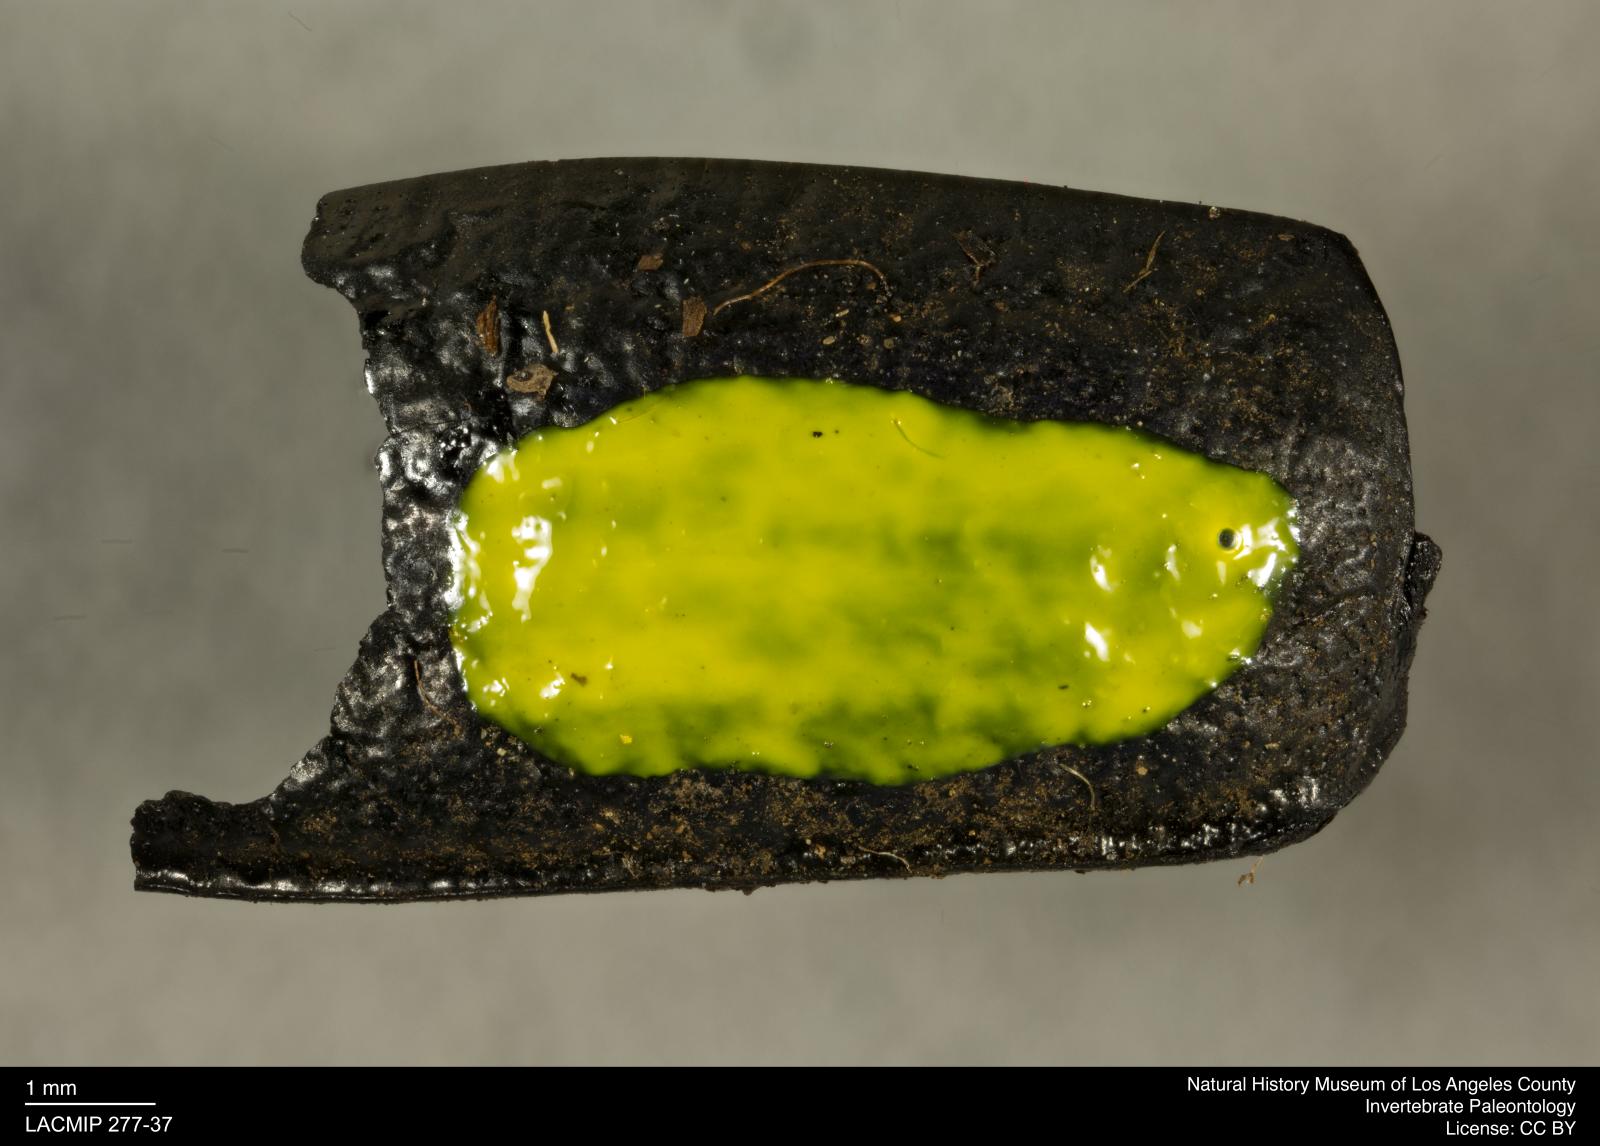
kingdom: Animalia
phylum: Arthropoda
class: Insecta
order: Coleoptera
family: Tenebrionidae
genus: Coniontis
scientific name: Coniontis abdominalis
